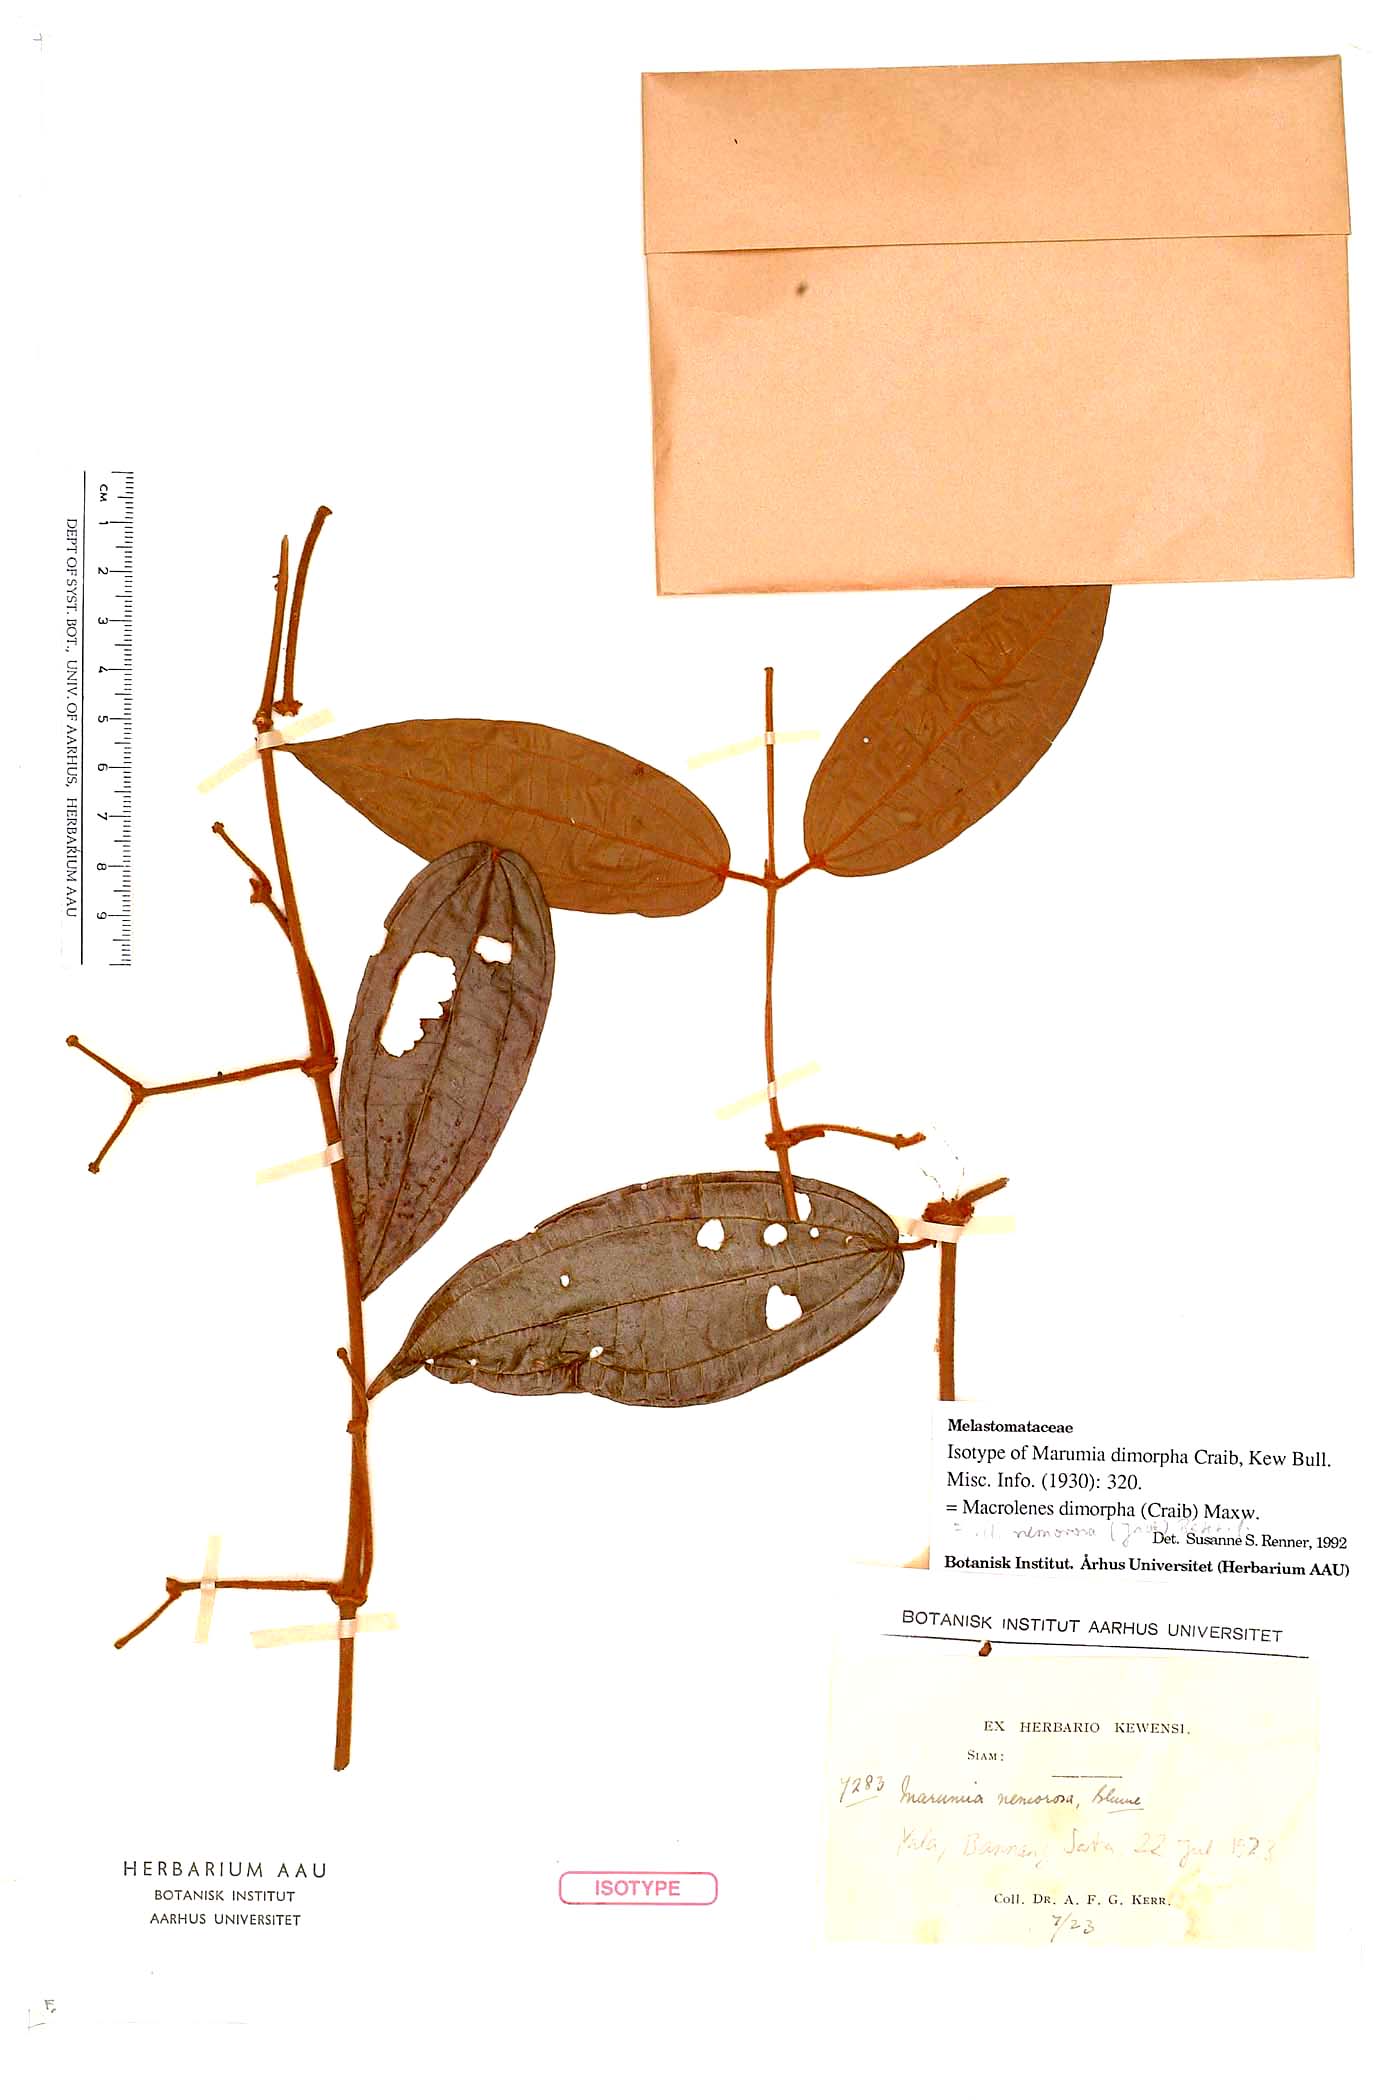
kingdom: Plantae
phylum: Tracheophyta
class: Magnoliopsida
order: Myrtales
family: Melastomataceae
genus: Macrolenes
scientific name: Macrolenes dimorpha
